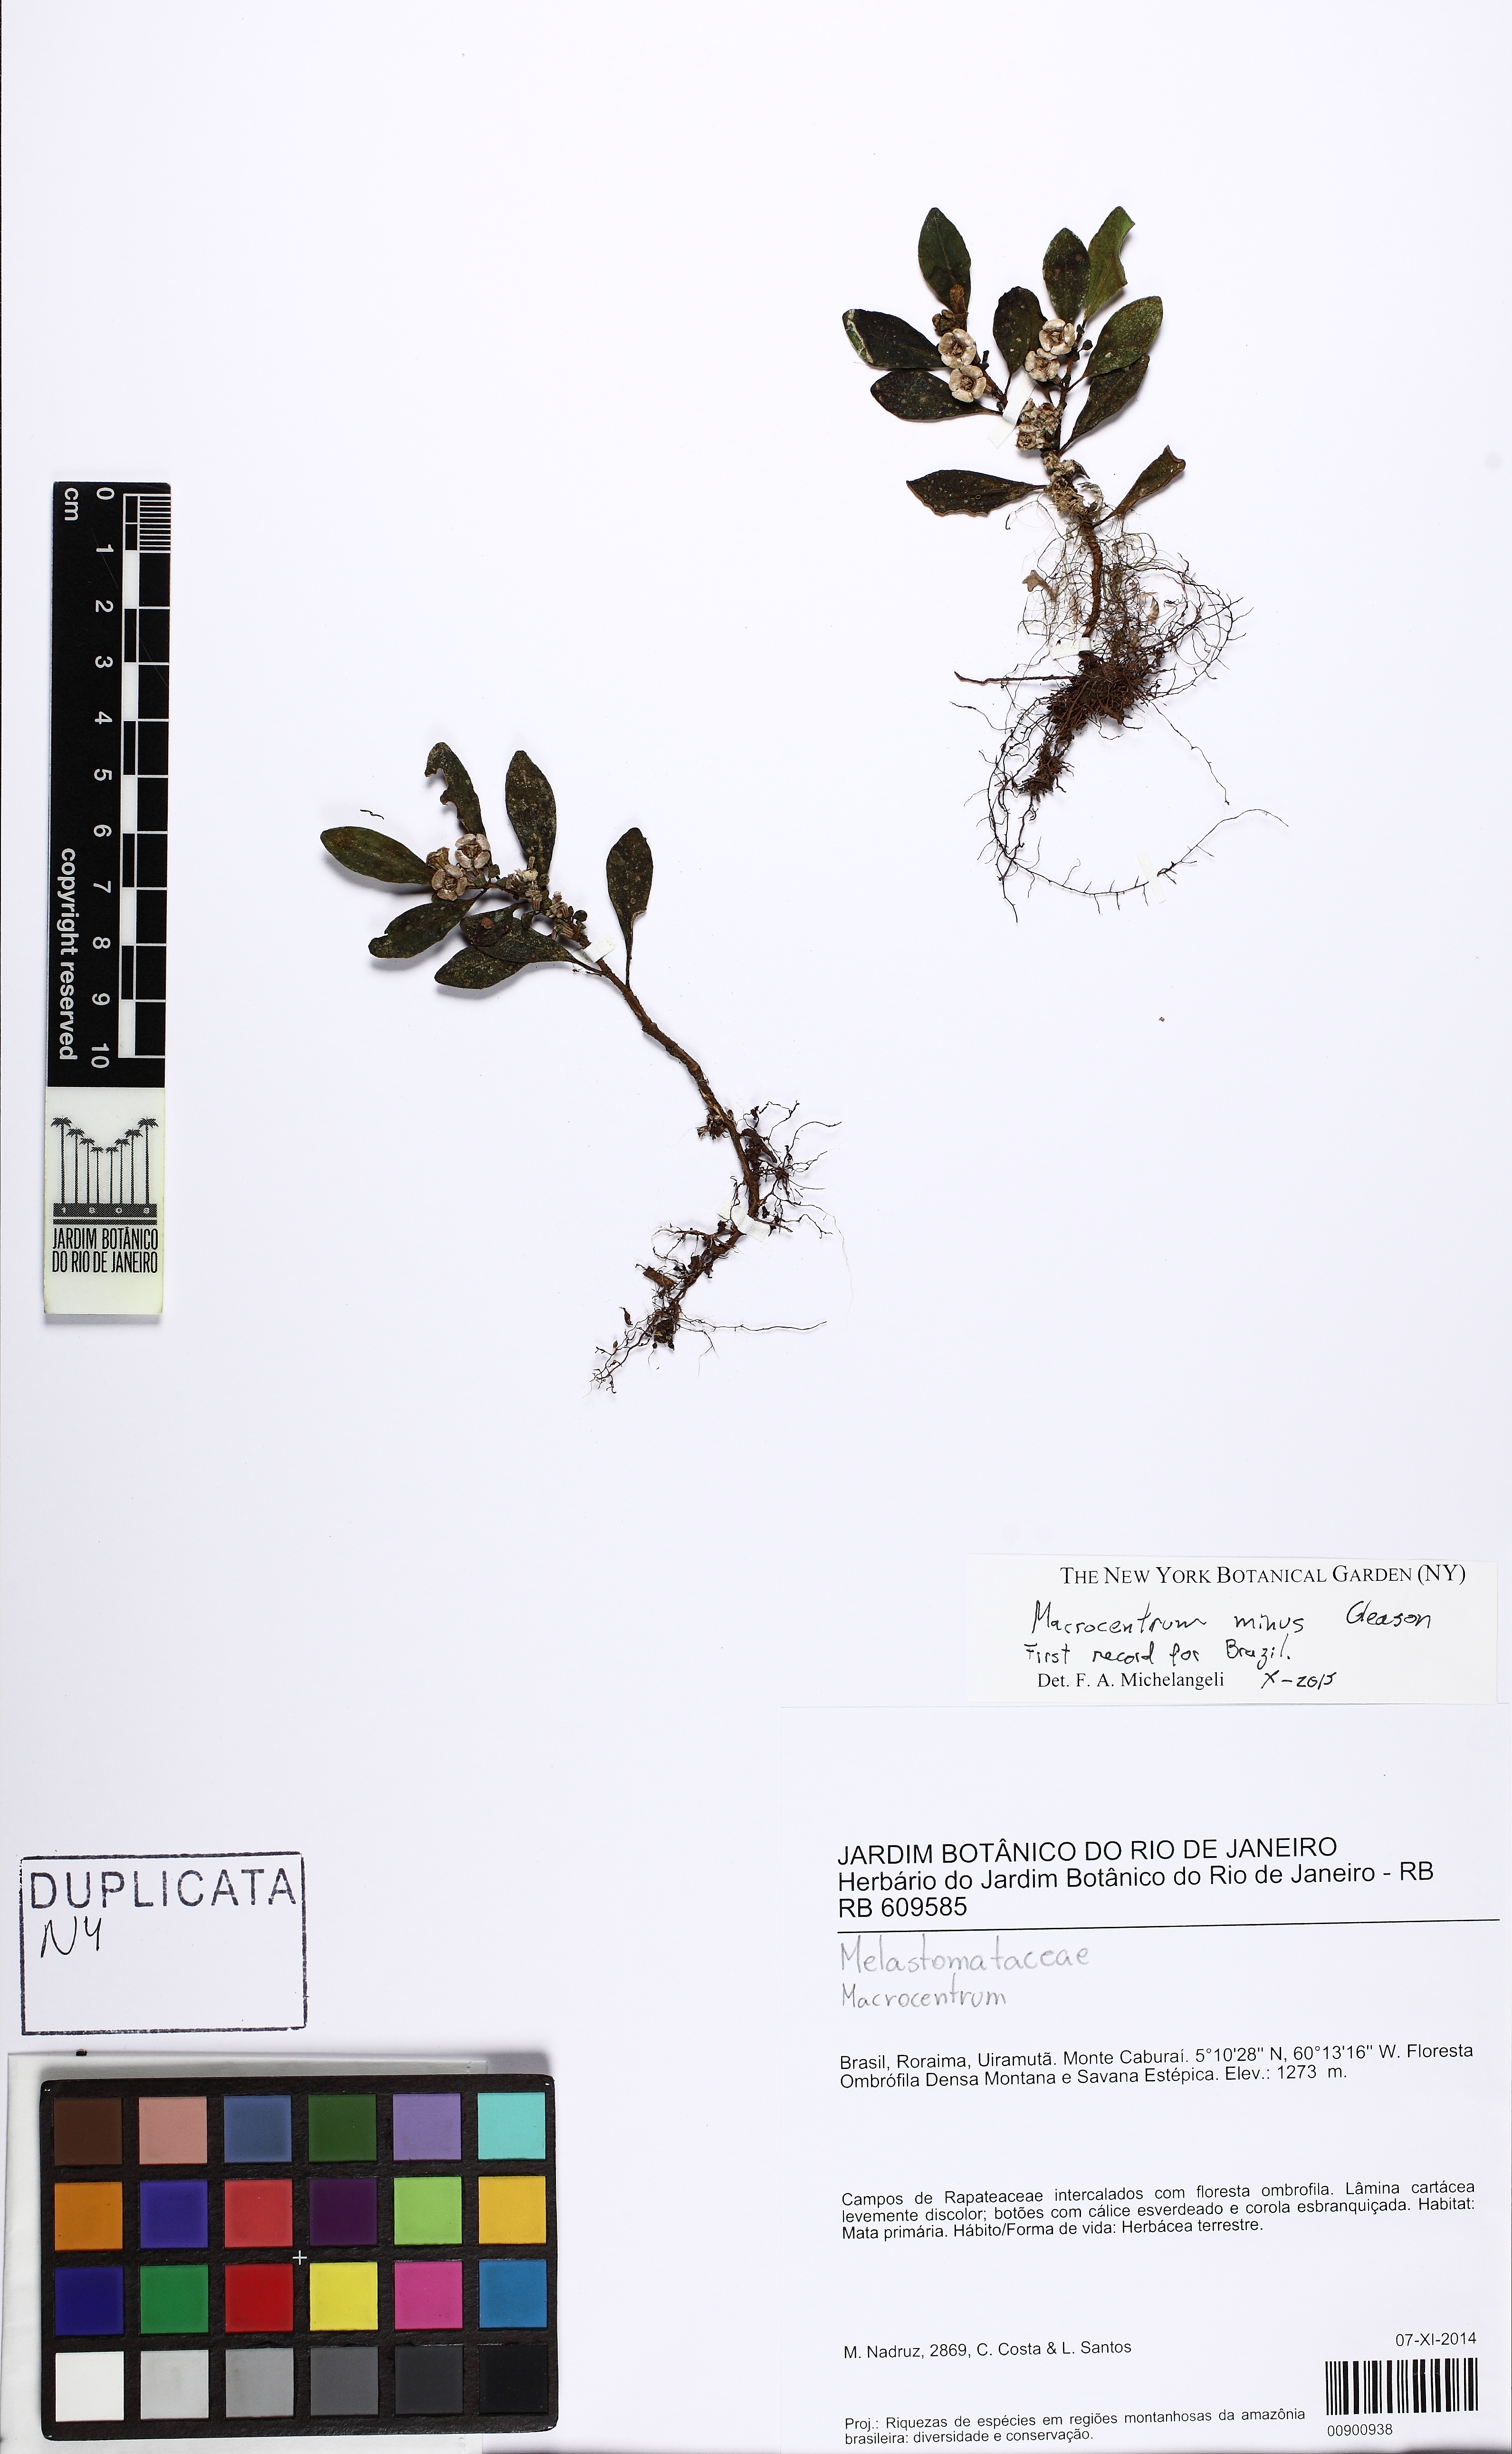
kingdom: Plantae
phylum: Tracheophyta
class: Magnoliopsida
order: Myrtales
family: Melastomataceae
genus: Macrocentrum
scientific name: Macrocentrum minus
